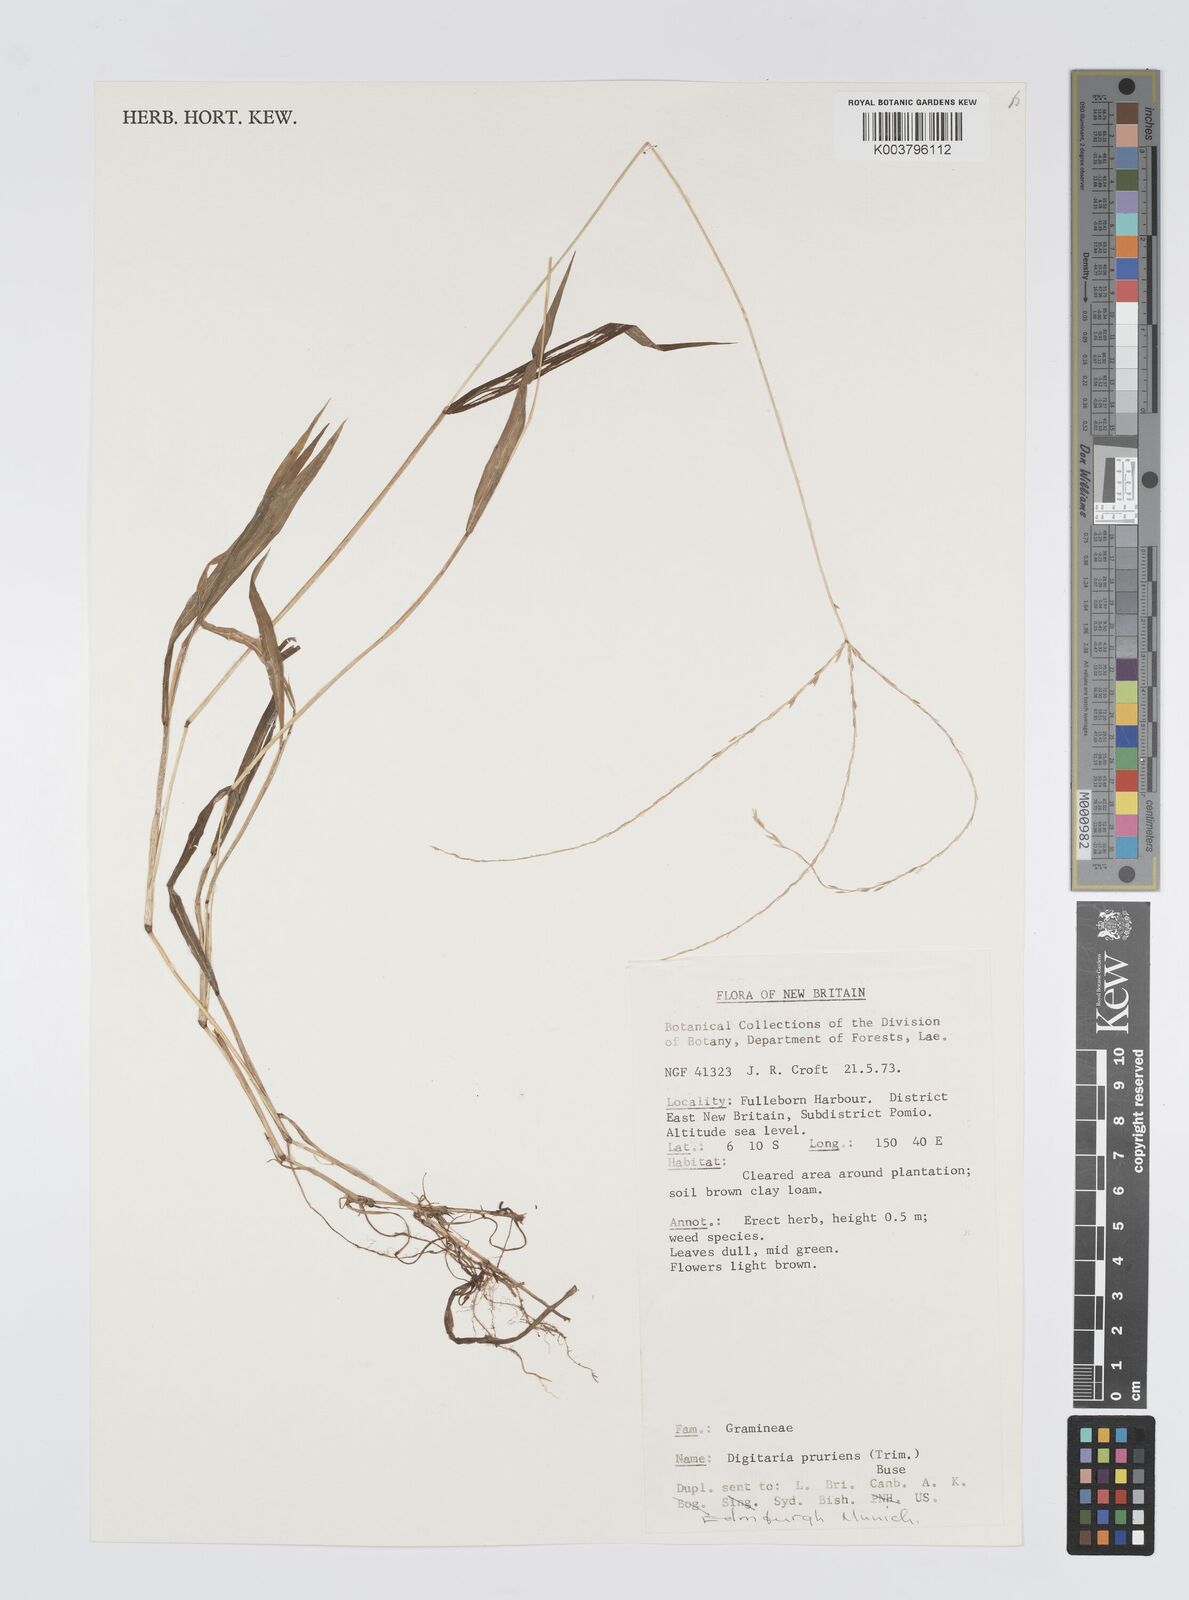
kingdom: Plantae
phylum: Tracheophyta
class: Liliopsida
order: Poales
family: Poaceae
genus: Digitaria
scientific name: Digitaria setigera
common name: East indian crabgrass
